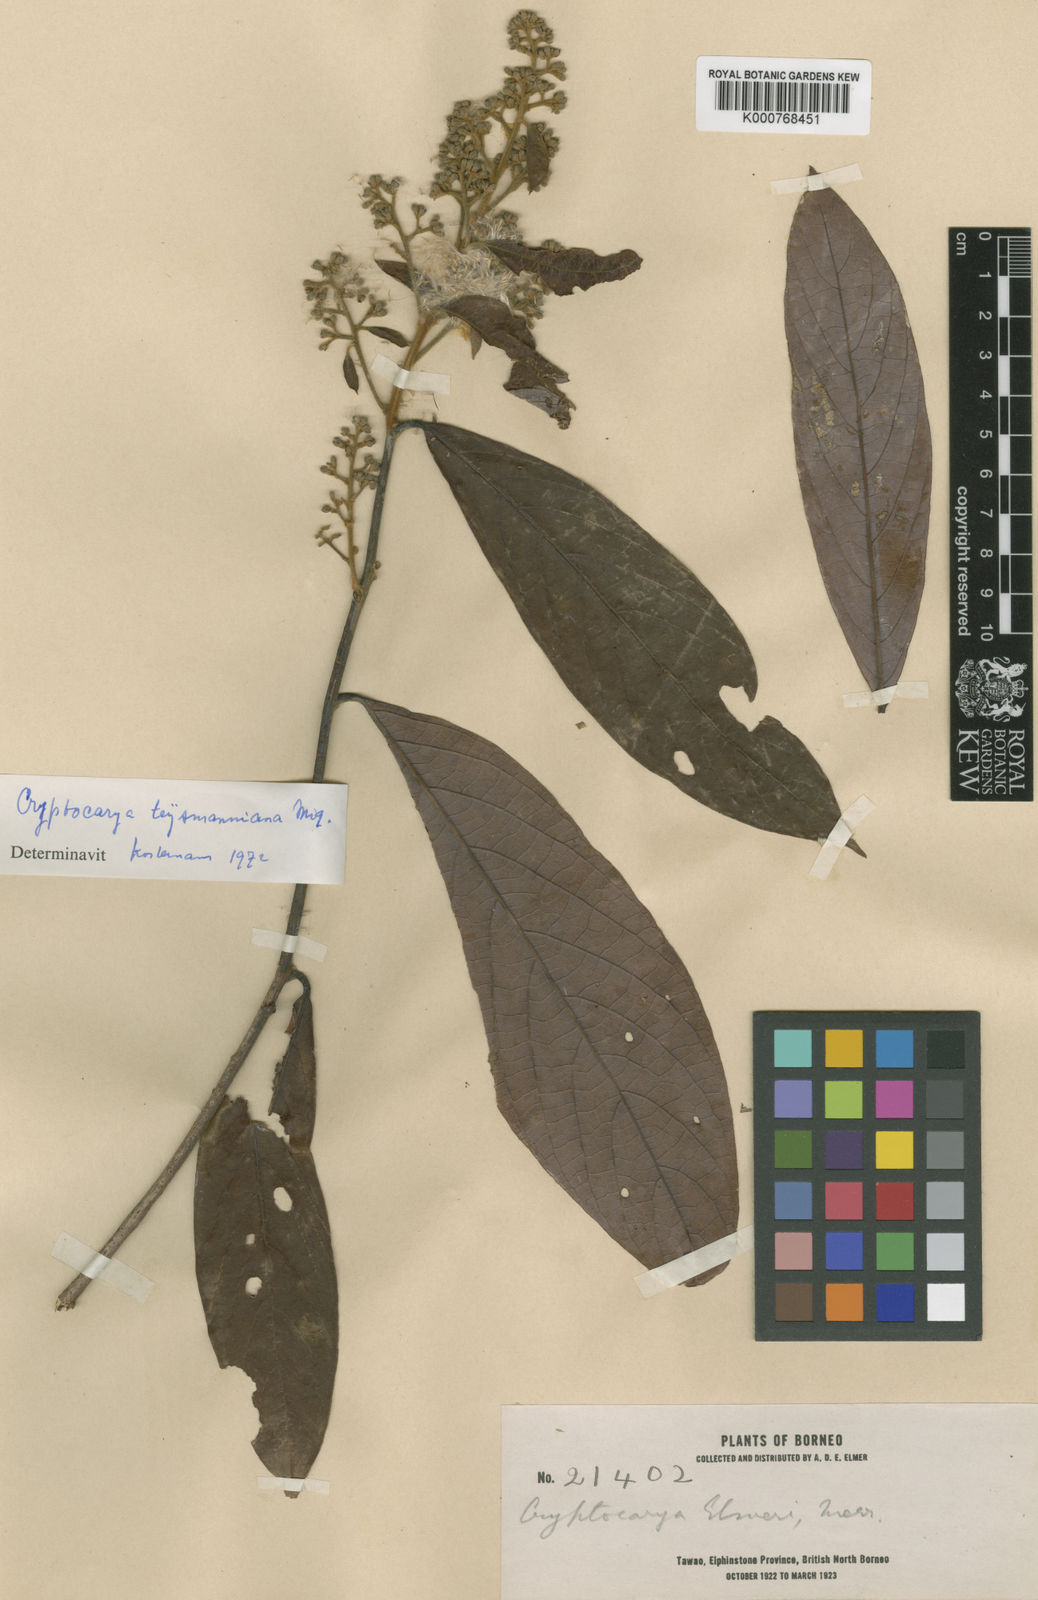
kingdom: Plantae
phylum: Tracheophyta
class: Magnoliopsida
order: Laurales
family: Lauraceae
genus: Cryptocarya
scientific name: Cryptocarya teysmanniana
